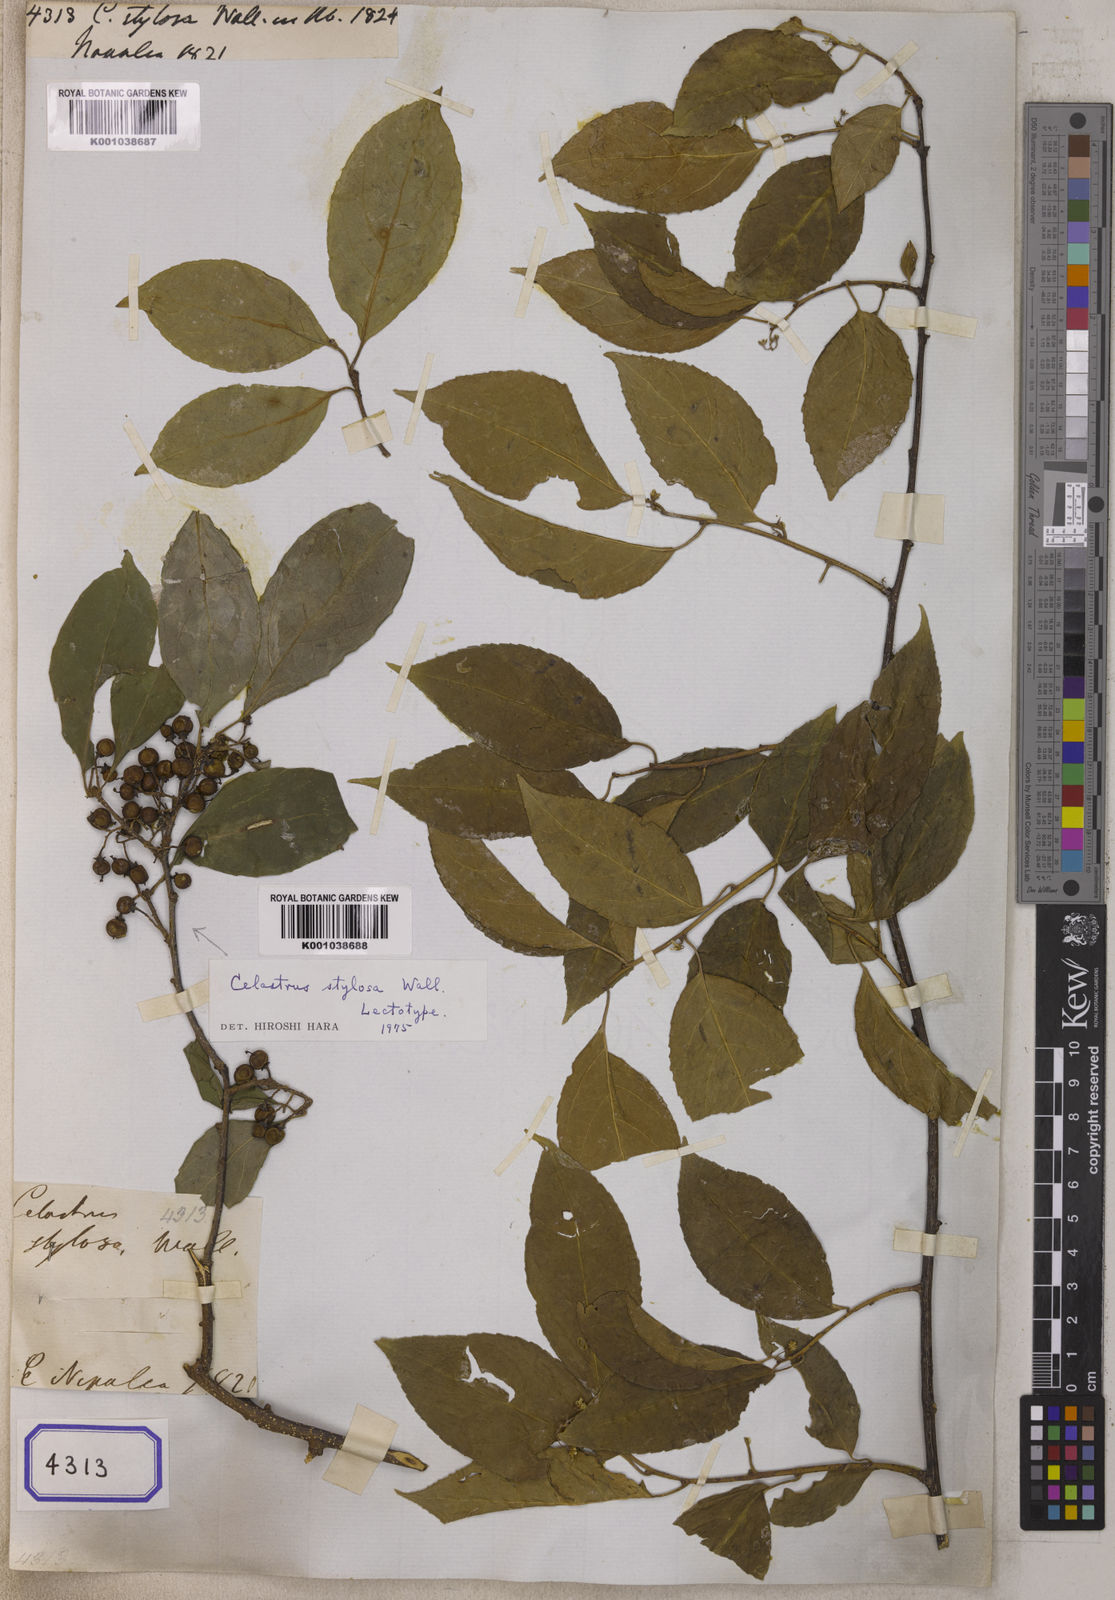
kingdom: Plantae
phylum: Tracheophyta
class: Magnoliopsida
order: Celastrales
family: Celastraceae
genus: Celastrus
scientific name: Celastrus stylosus
